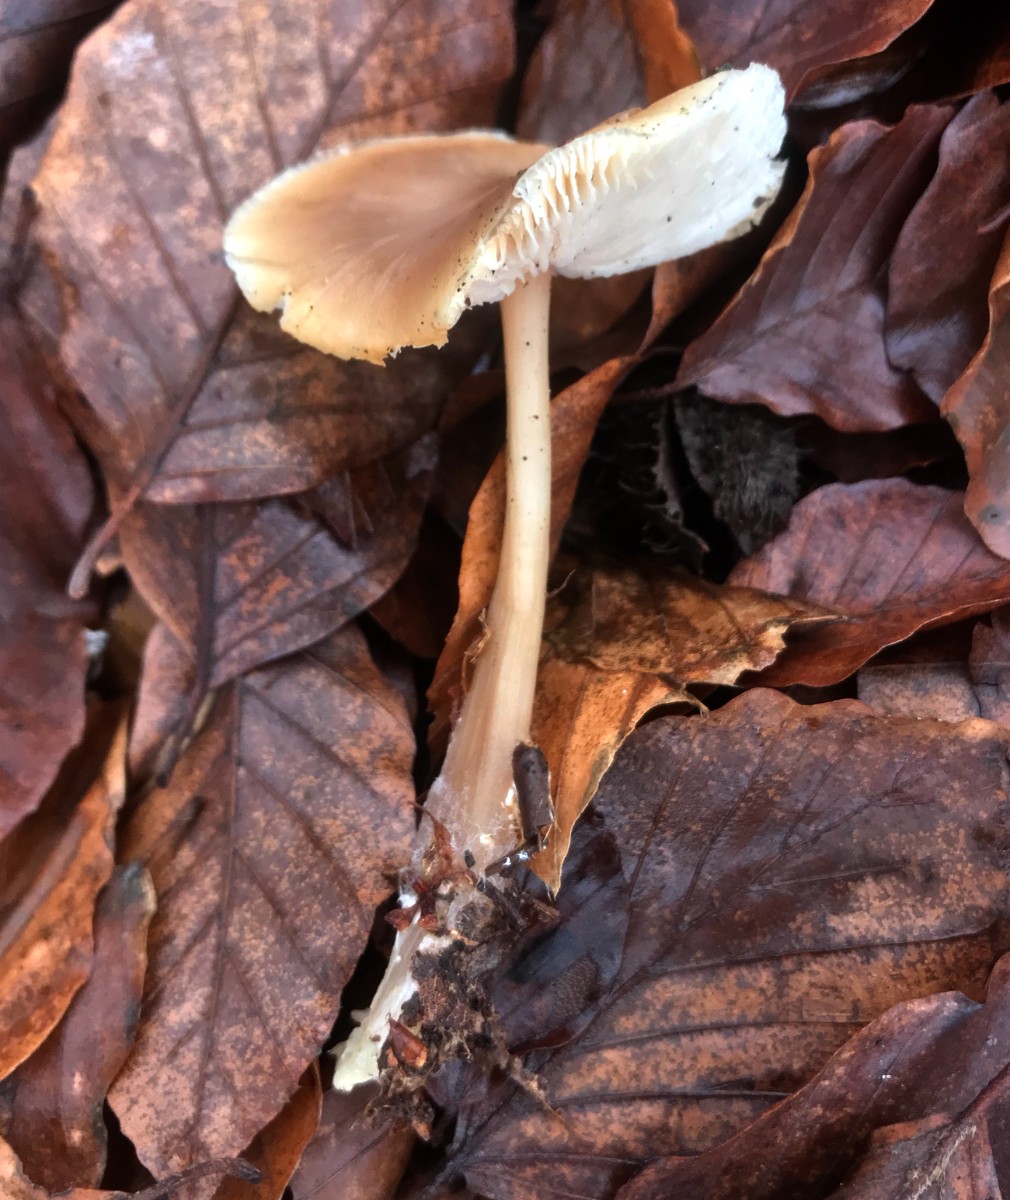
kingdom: Fungi
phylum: Basidiomycota
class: Agaricomycetes
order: Agaricales
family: Omphalotaceae
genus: Rhodocollybia
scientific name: Rhodocollybia asema
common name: horngrå fladhat
